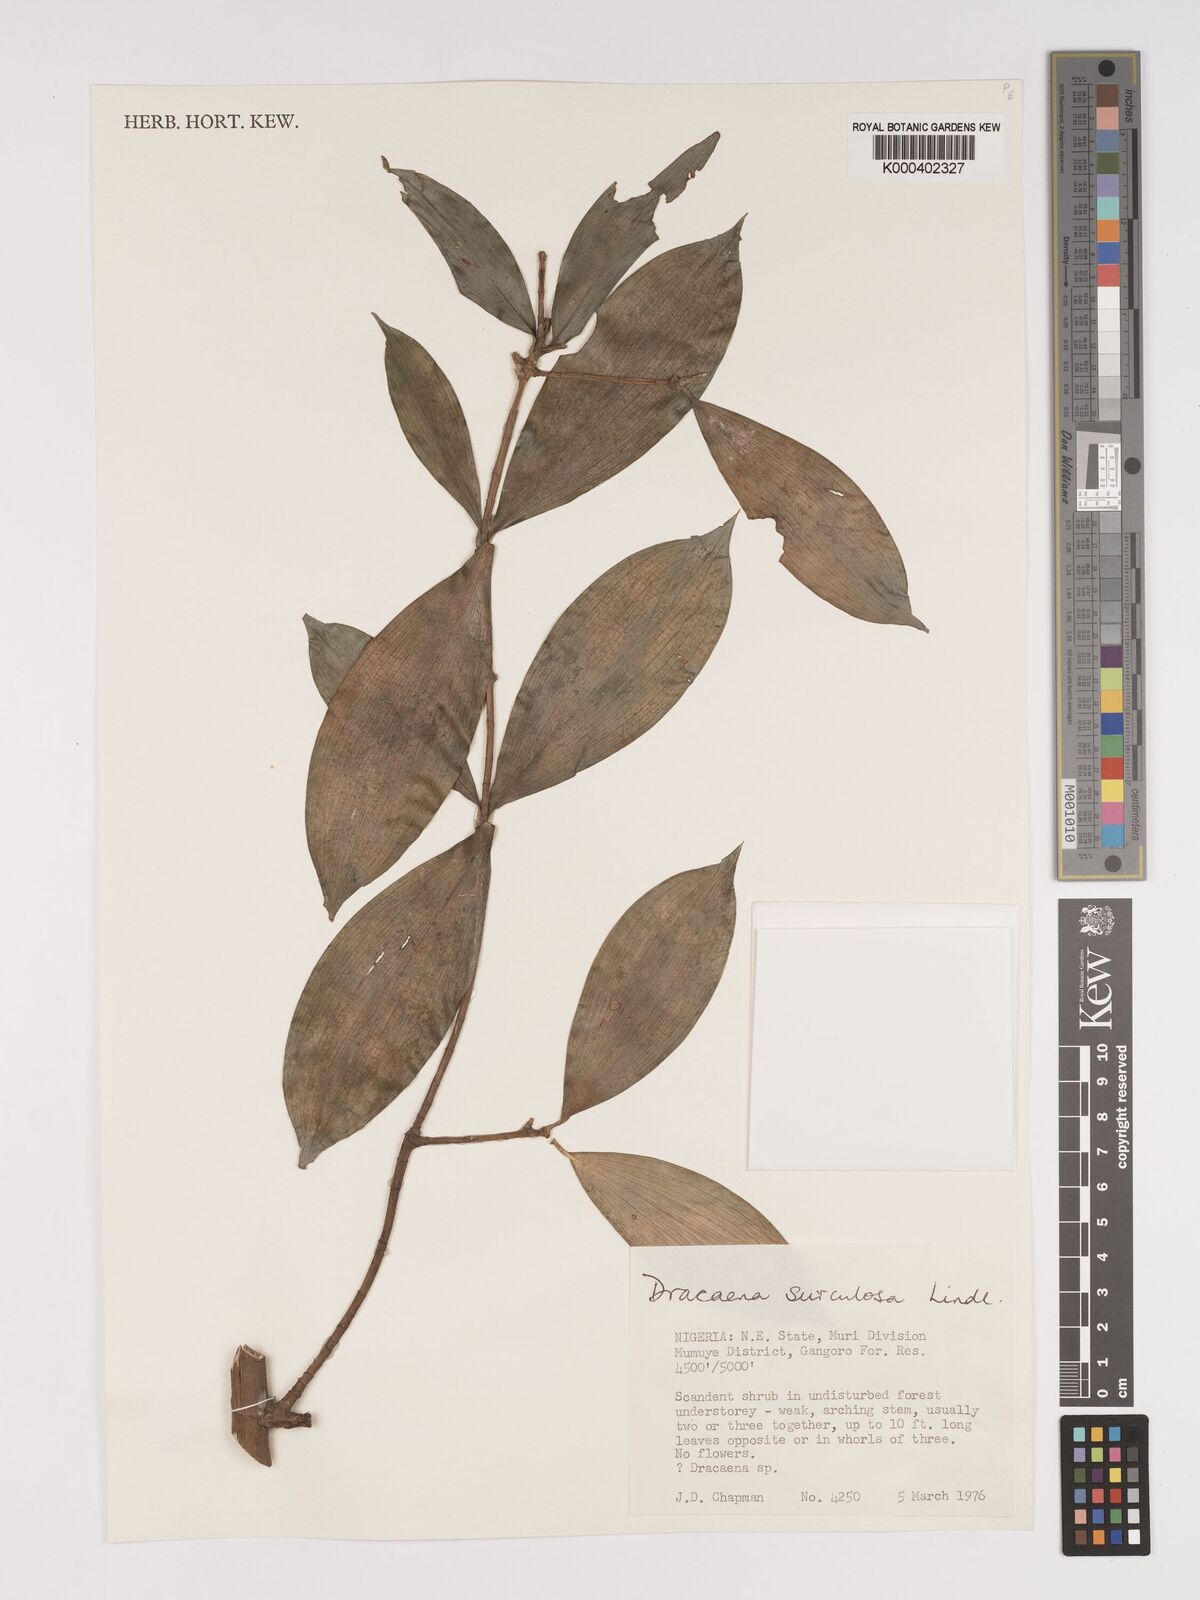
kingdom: Plantae
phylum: Tracheophyta
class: Liliopsida
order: Asparagales
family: Asparagaceae
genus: Dracaena
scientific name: Dracaena surculosa
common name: Spotted dracaena
